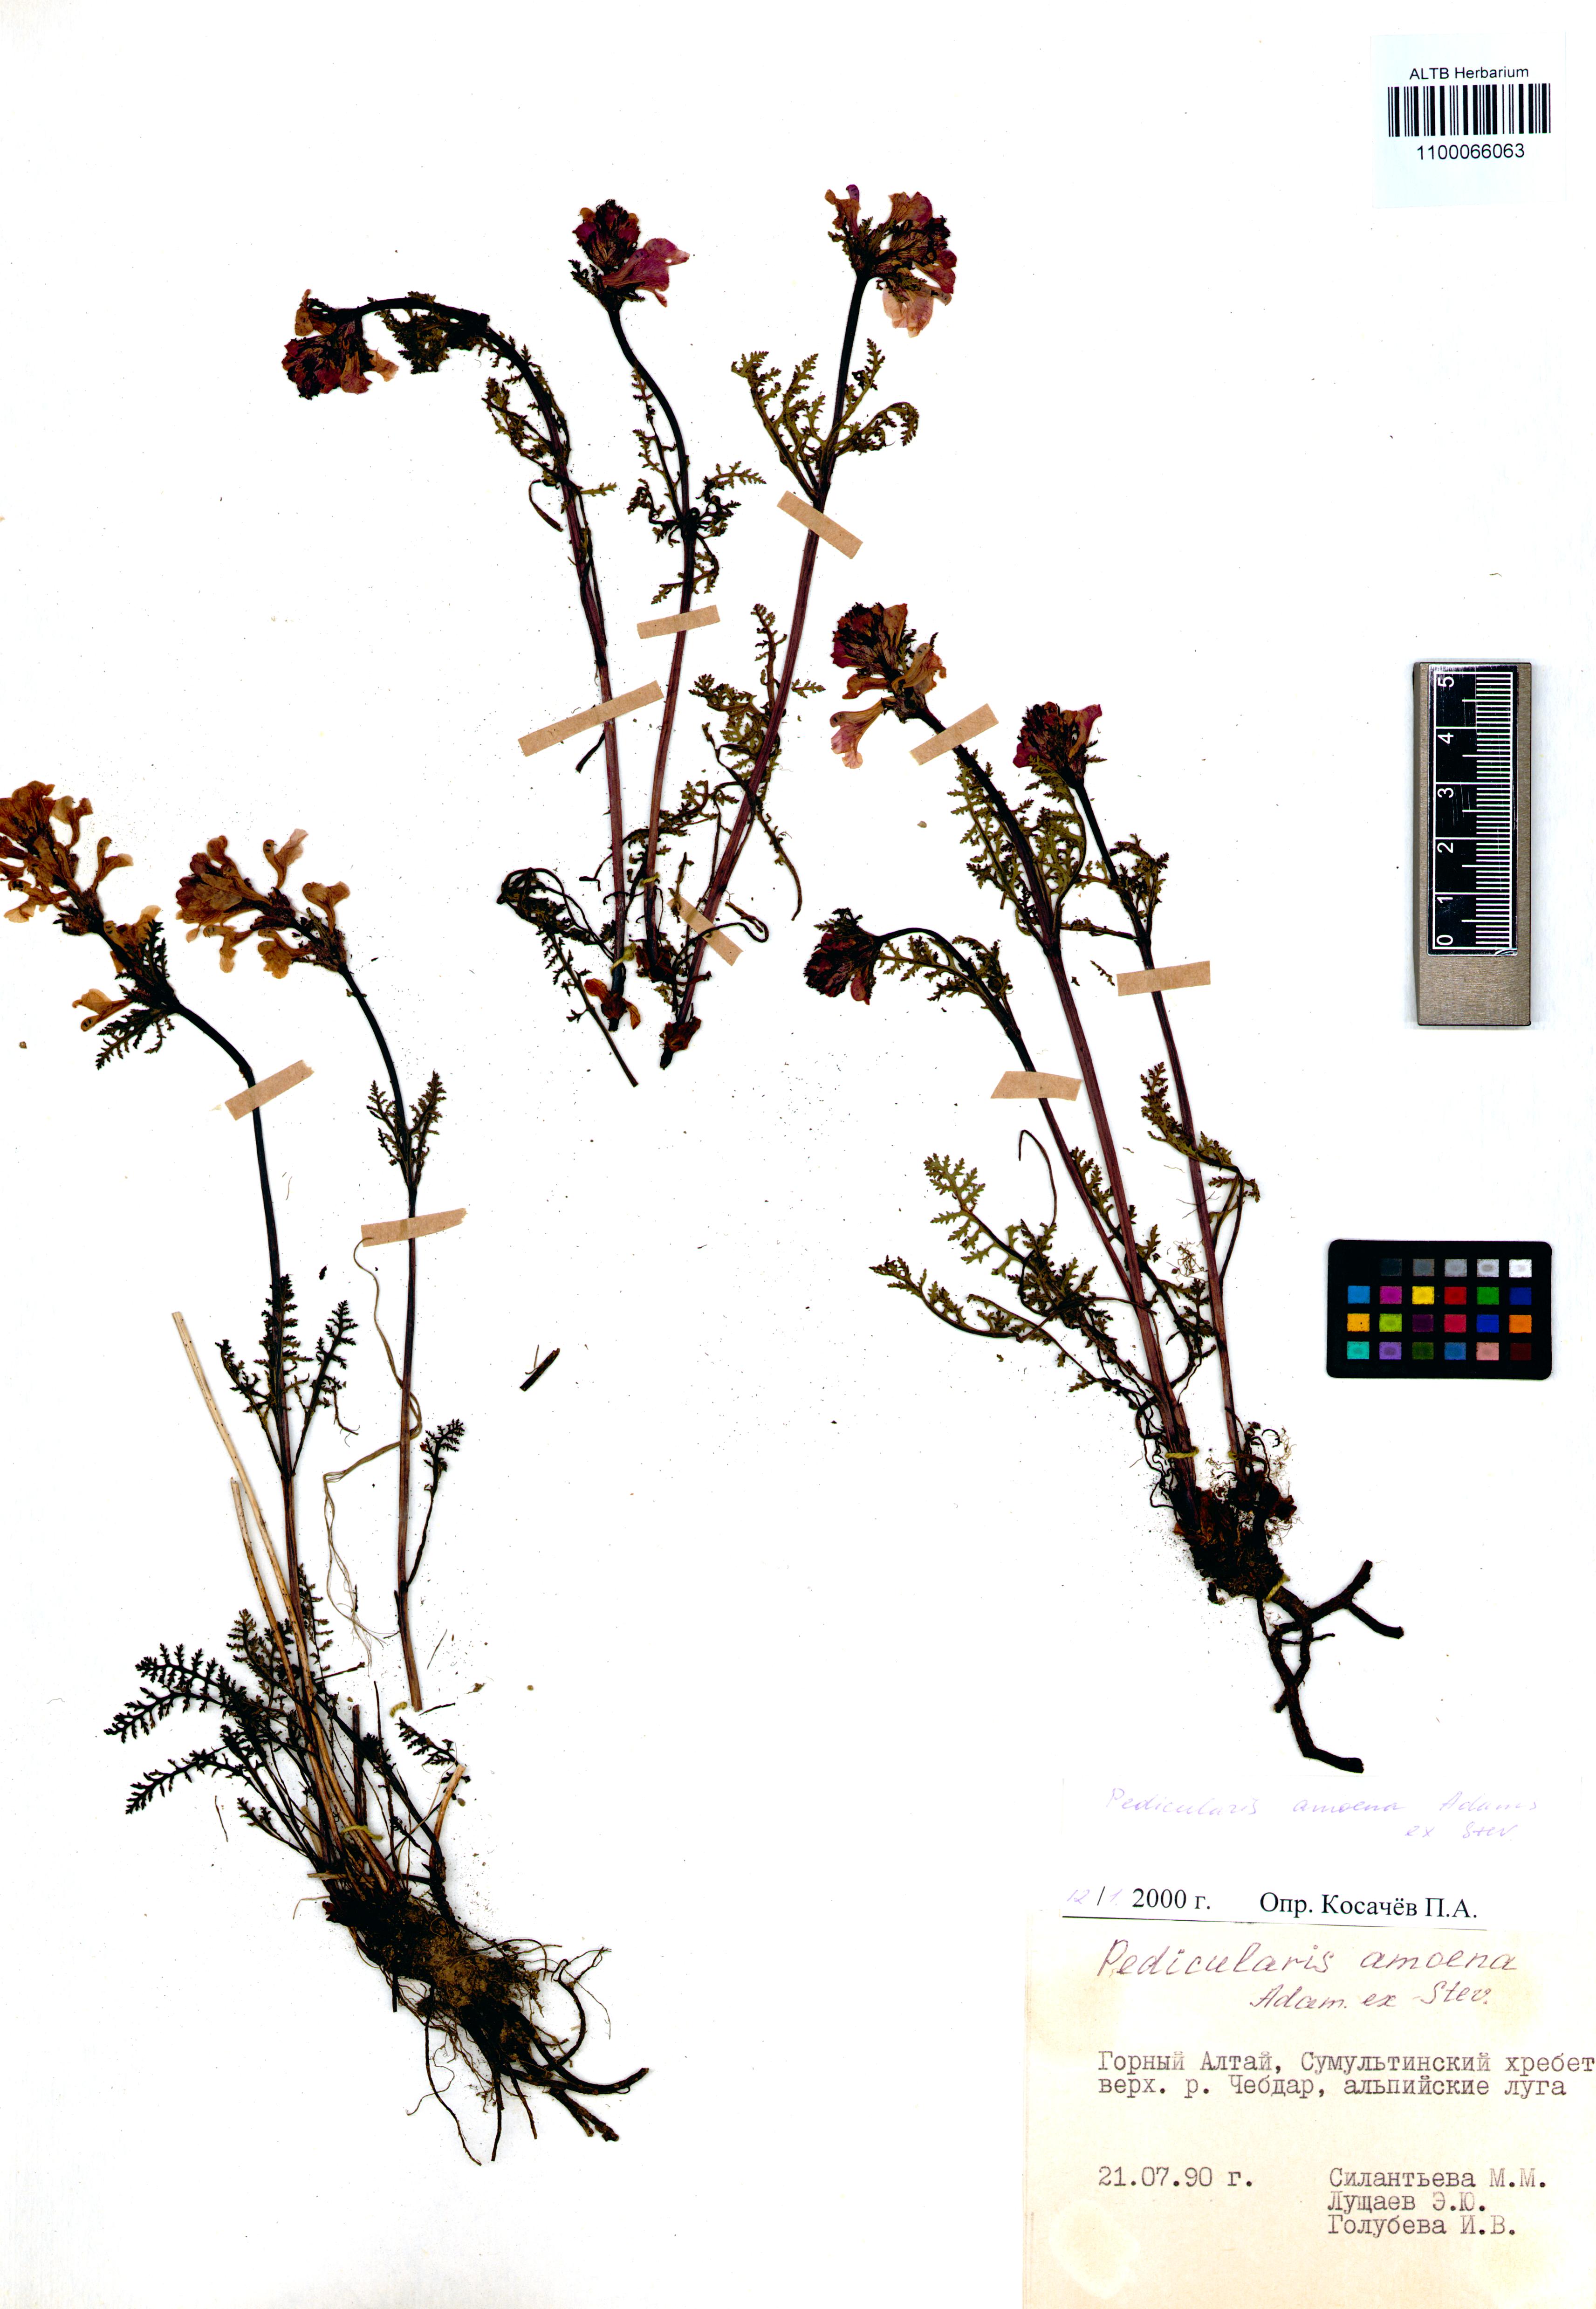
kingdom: Plantae
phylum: Tracheophyta
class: Magnoliopsida
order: Lamiales
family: Orobanchaceae
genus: Pedicularis
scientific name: Pedicularis amoena
